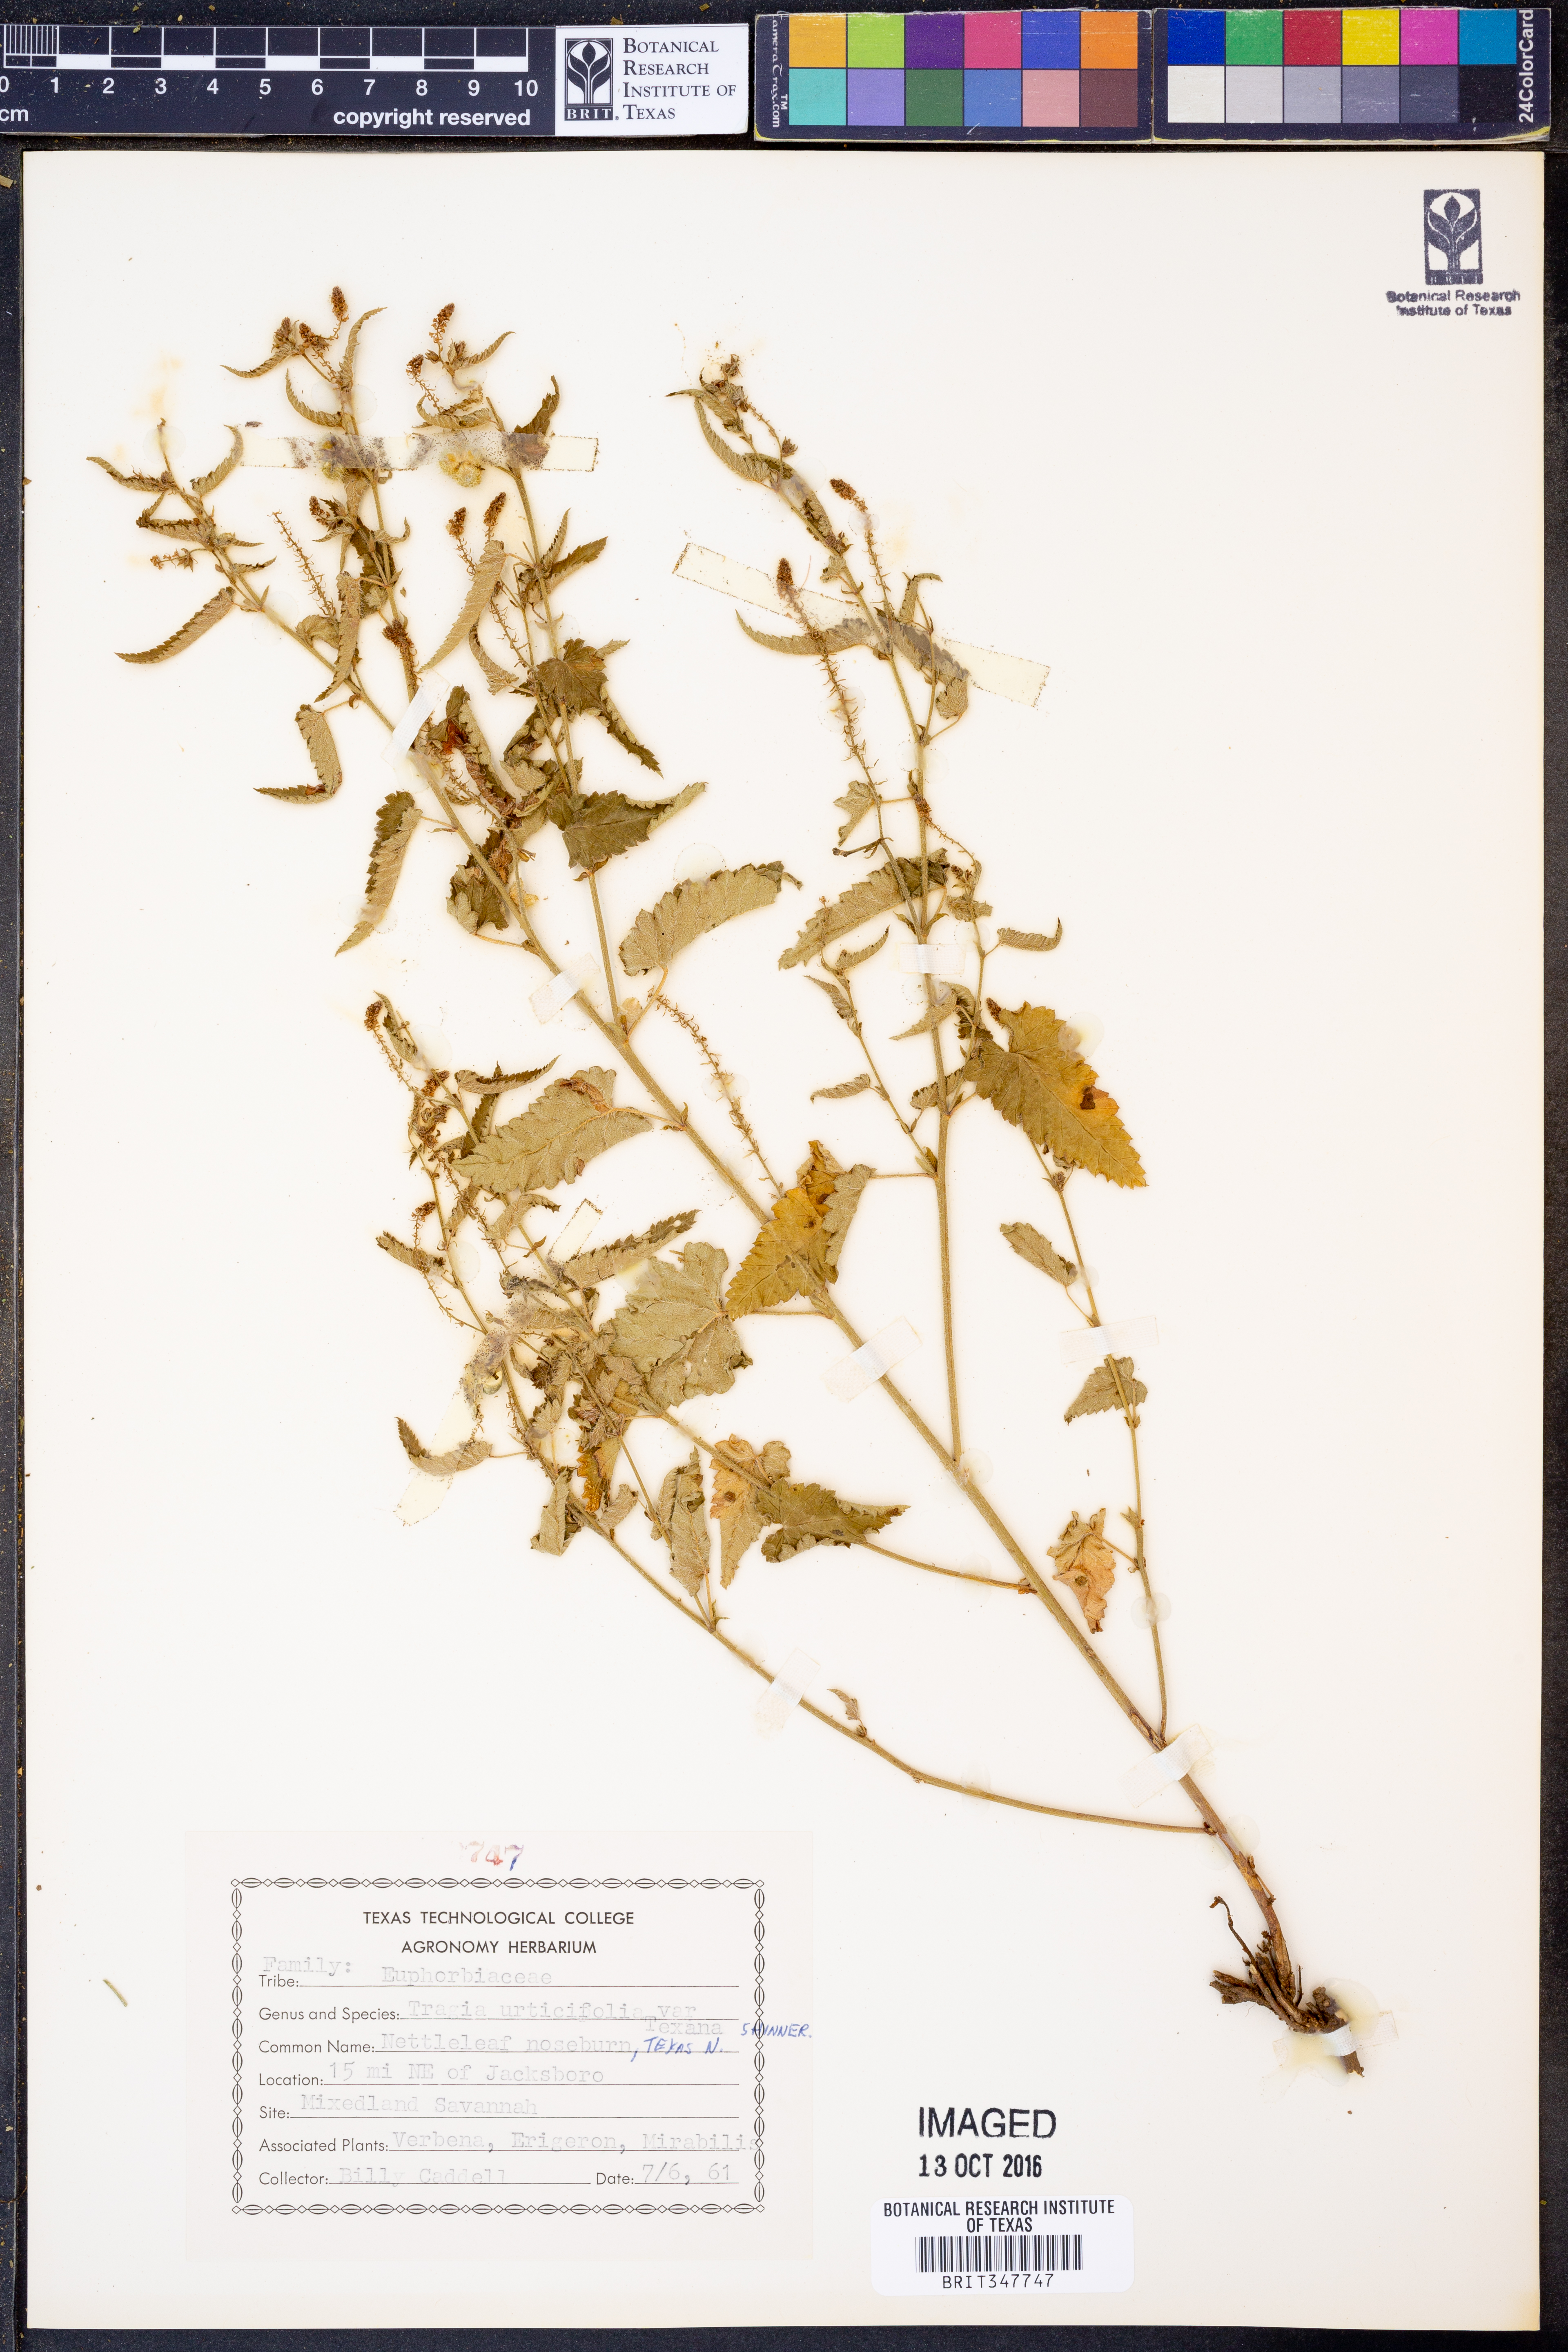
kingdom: Plantae
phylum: Tracheophyta
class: Magnoliopsida
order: Malpighiales
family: Euphorbiaceae
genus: Tragia
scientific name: Tragia betonicifolia
